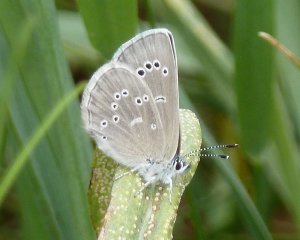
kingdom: Animalia
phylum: Arthropoda
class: Insecta
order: Lepidoptera
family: Lycaenidae
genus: Glaucopsyche
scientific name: Glaucopsyche lygdamus
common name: Silvery Blue
